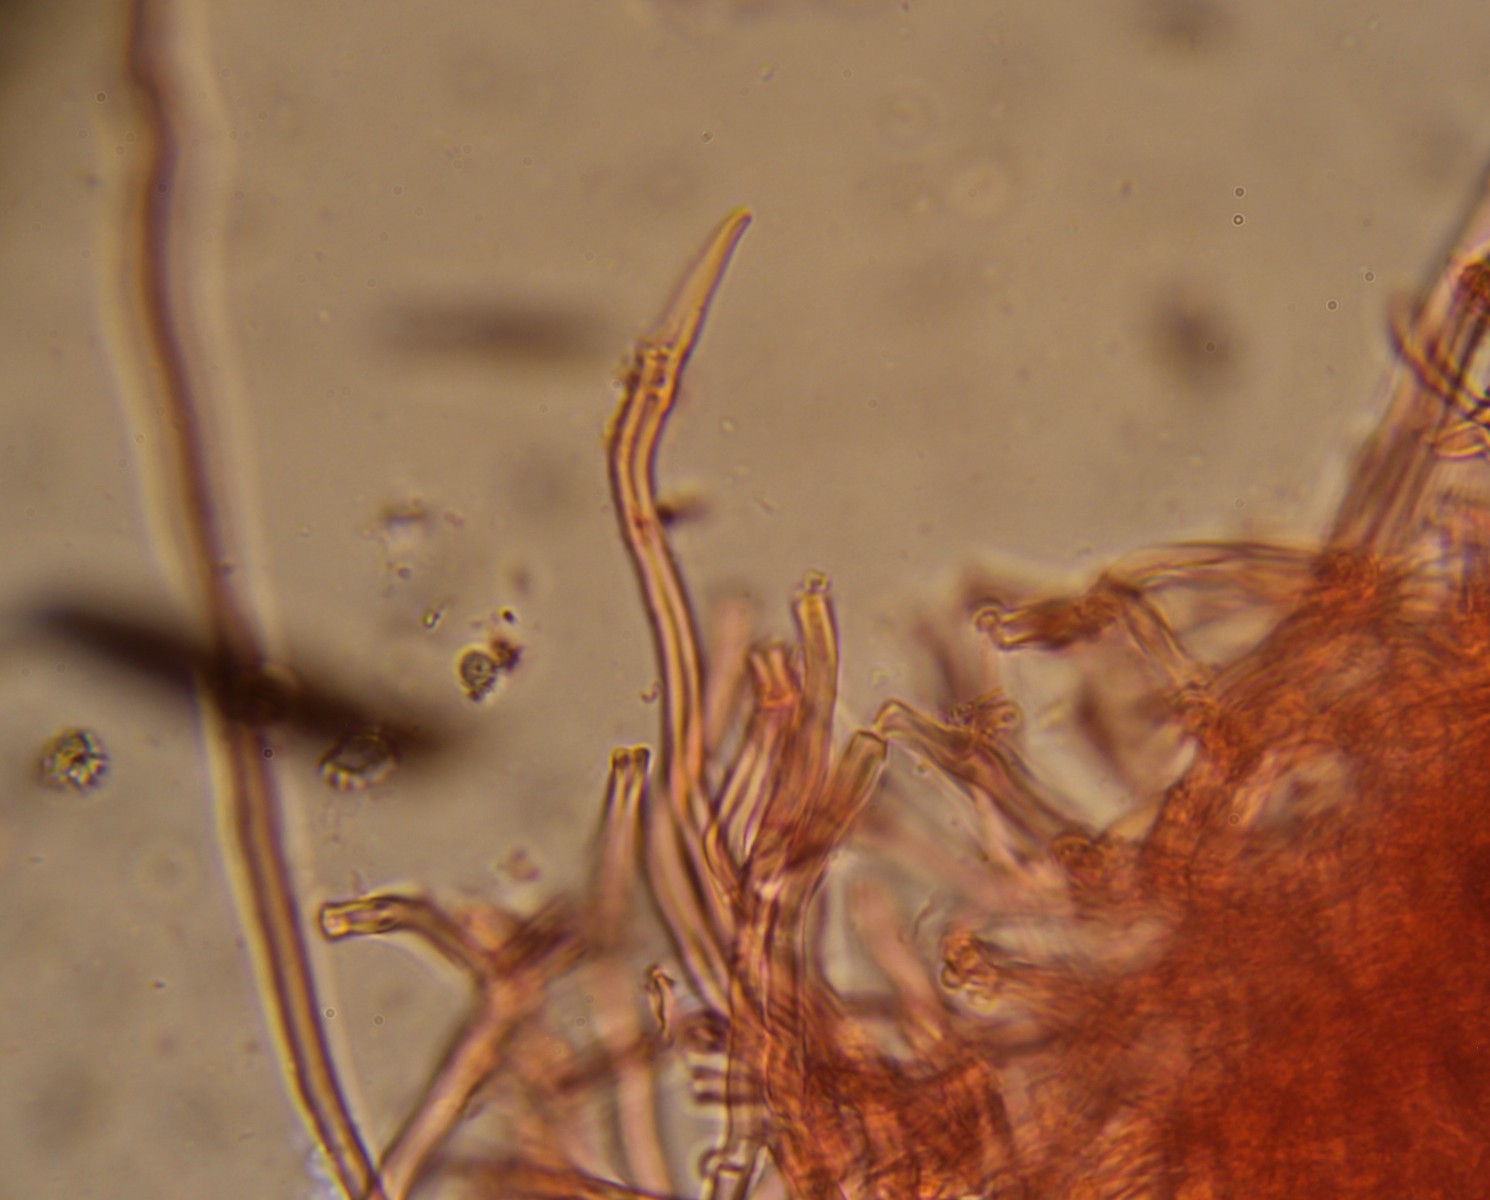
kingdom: Fungi
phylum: Basidiomycota
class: Agaricomycetes
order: Hymenochaetales
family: Schizoporaceae
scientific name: Schizoporaceae
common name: tandsvampfamilien
